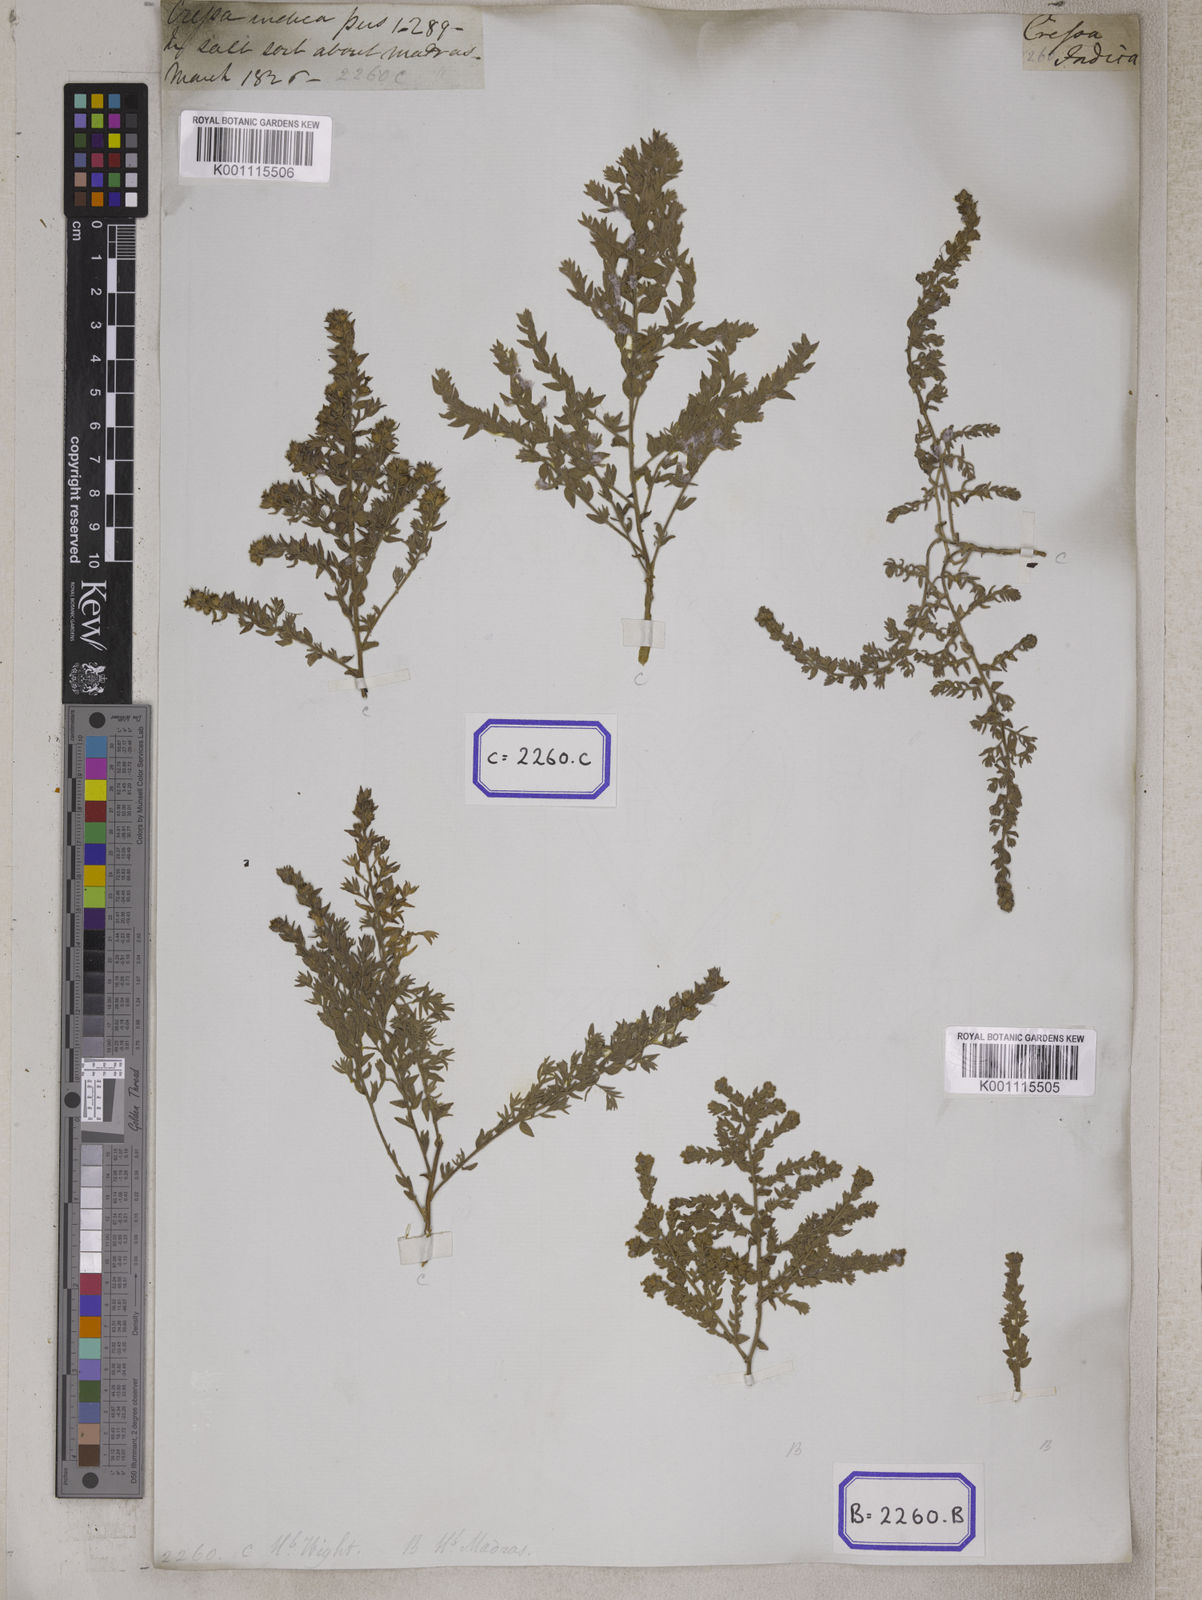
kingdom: Plantae
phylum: Tracheophyta
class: Magnoliopsida
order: Solanales
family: Convolvulaceae
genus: Cressa
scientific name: Cressa cretica
